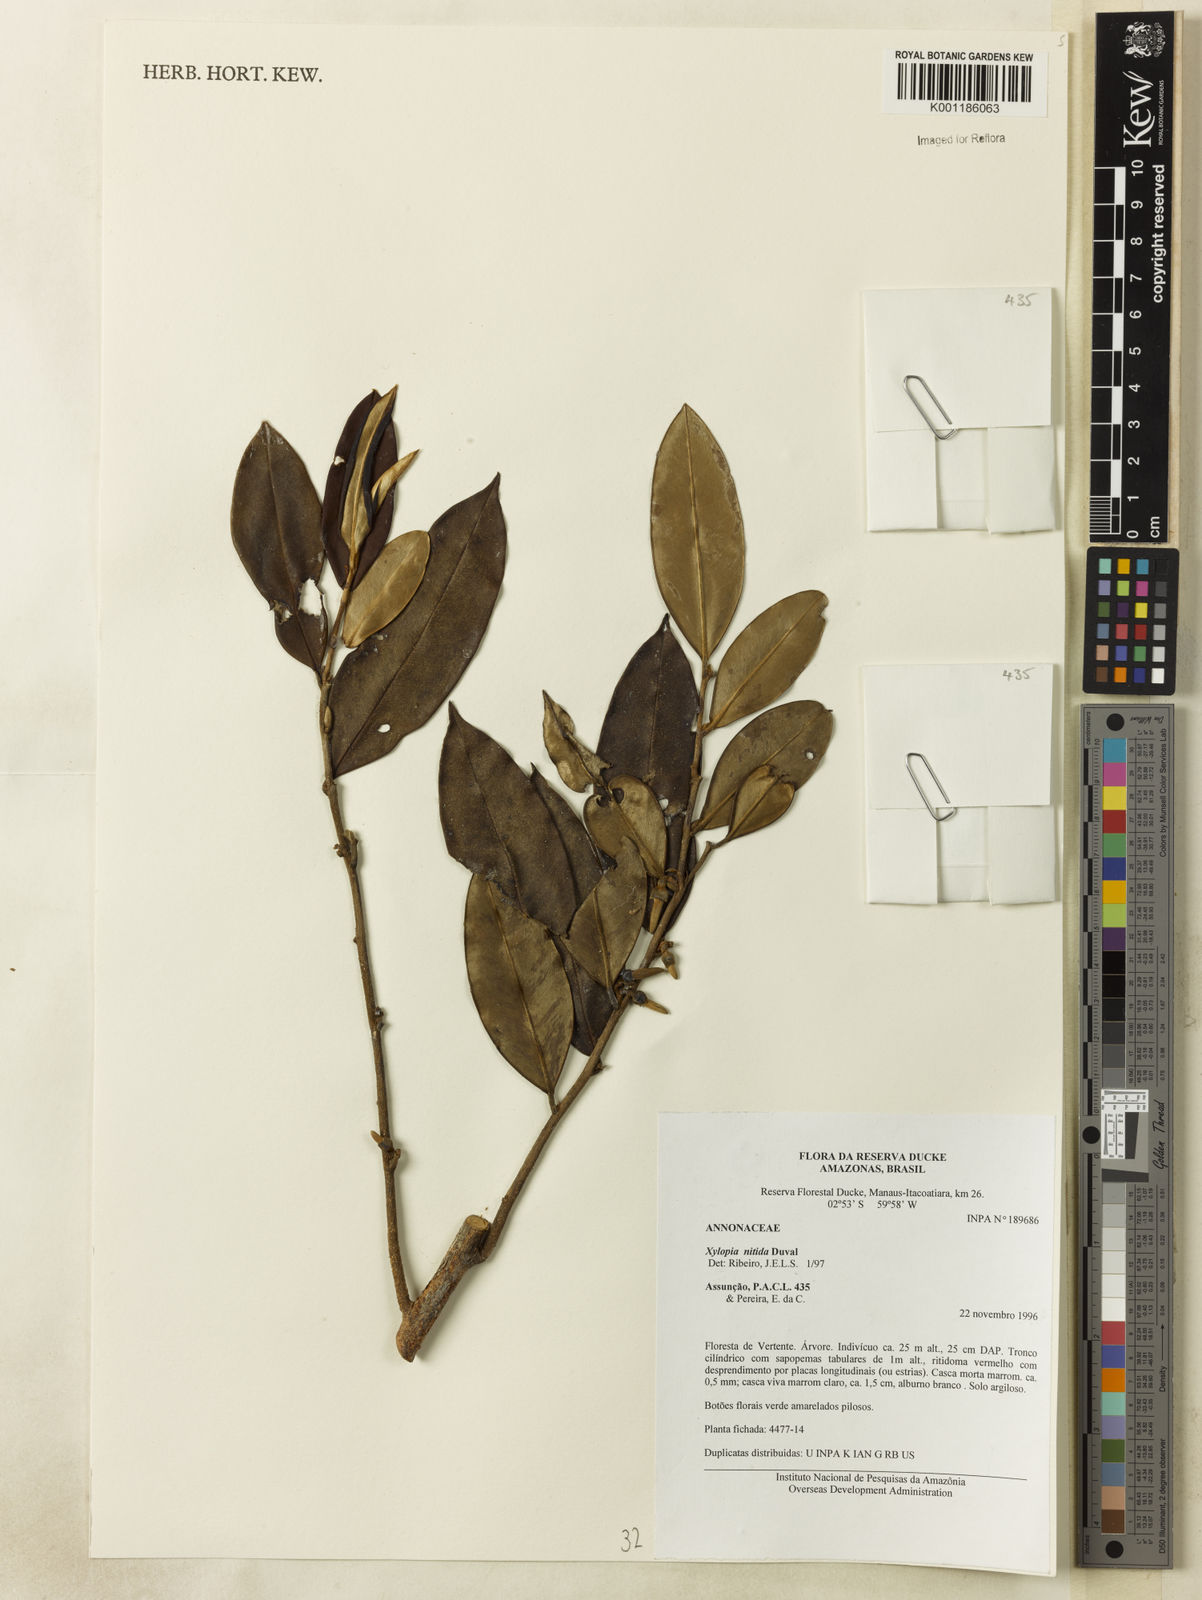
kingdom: Plantae
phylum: Tracheophyta
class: Magnoliopsida
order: Magnoliales
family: Annonaceae
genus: Xylopia
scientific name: Xylopia nitida
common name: White kuyama
